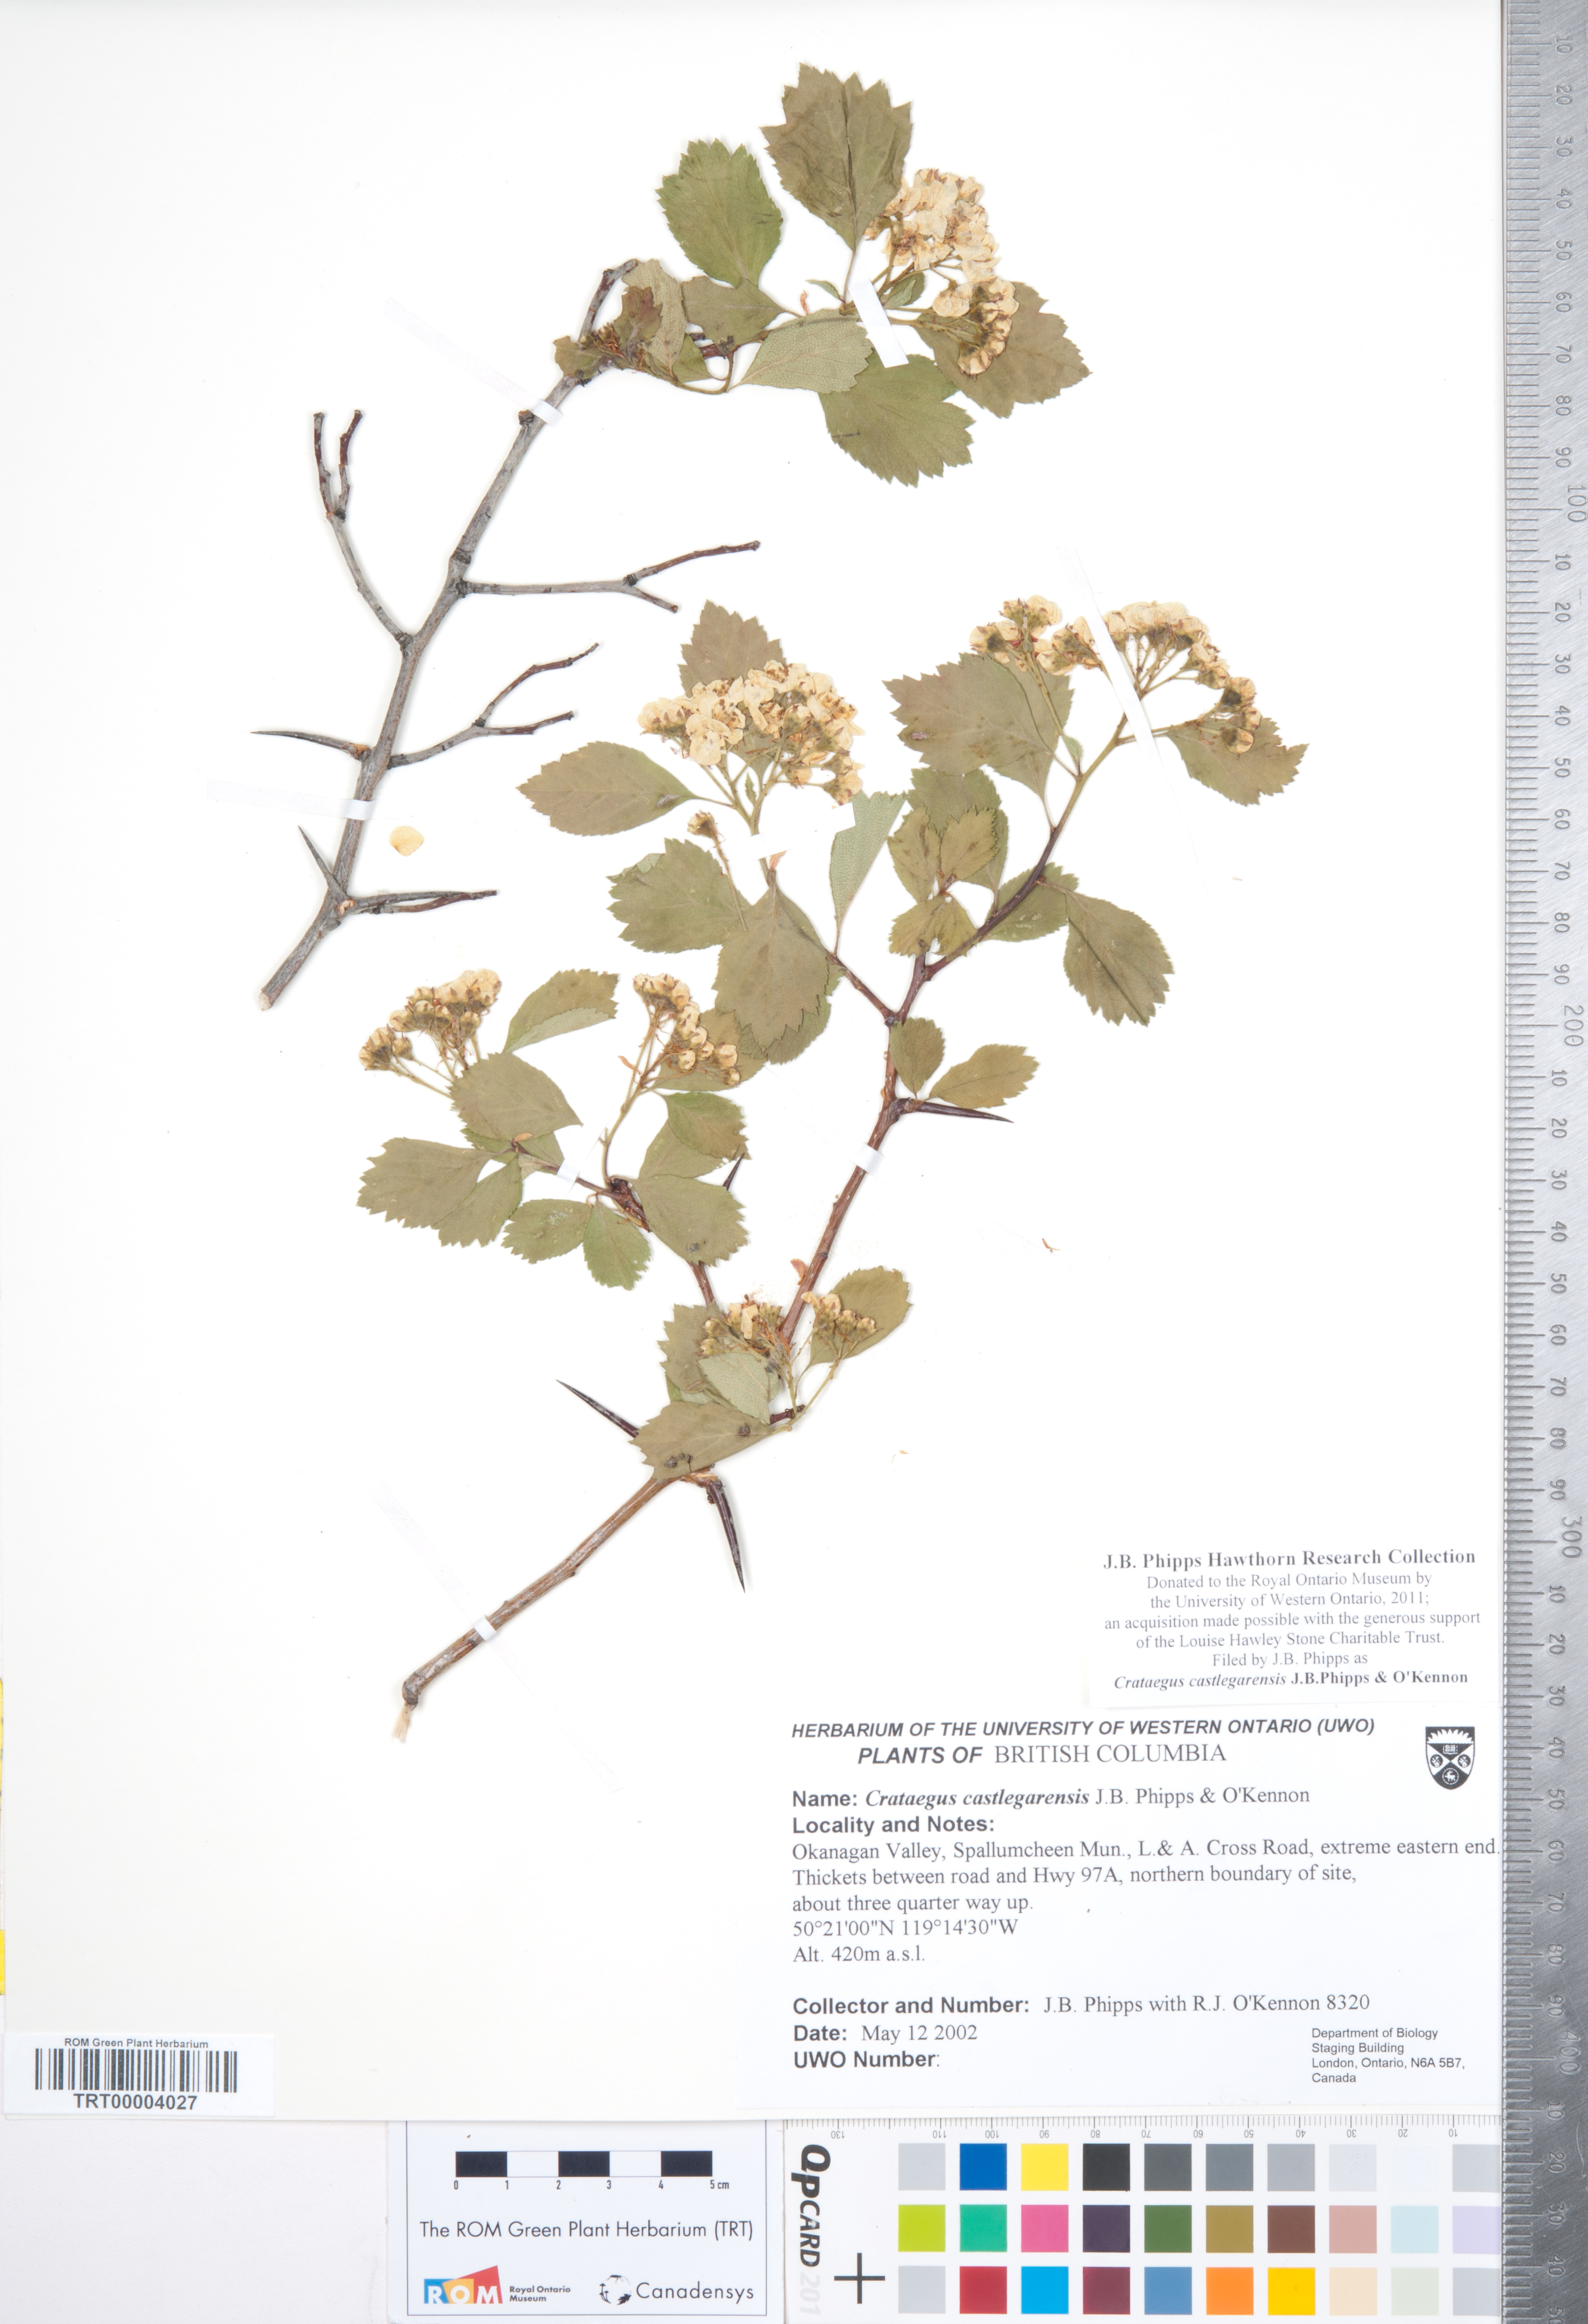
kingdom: Plantae
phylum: Tracheophyta
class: Magnoliopsida
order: Rosales
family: Rosaceae
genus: Crataegus
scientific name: Crataegus castlegarensis
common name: Castlegar hawthorn
